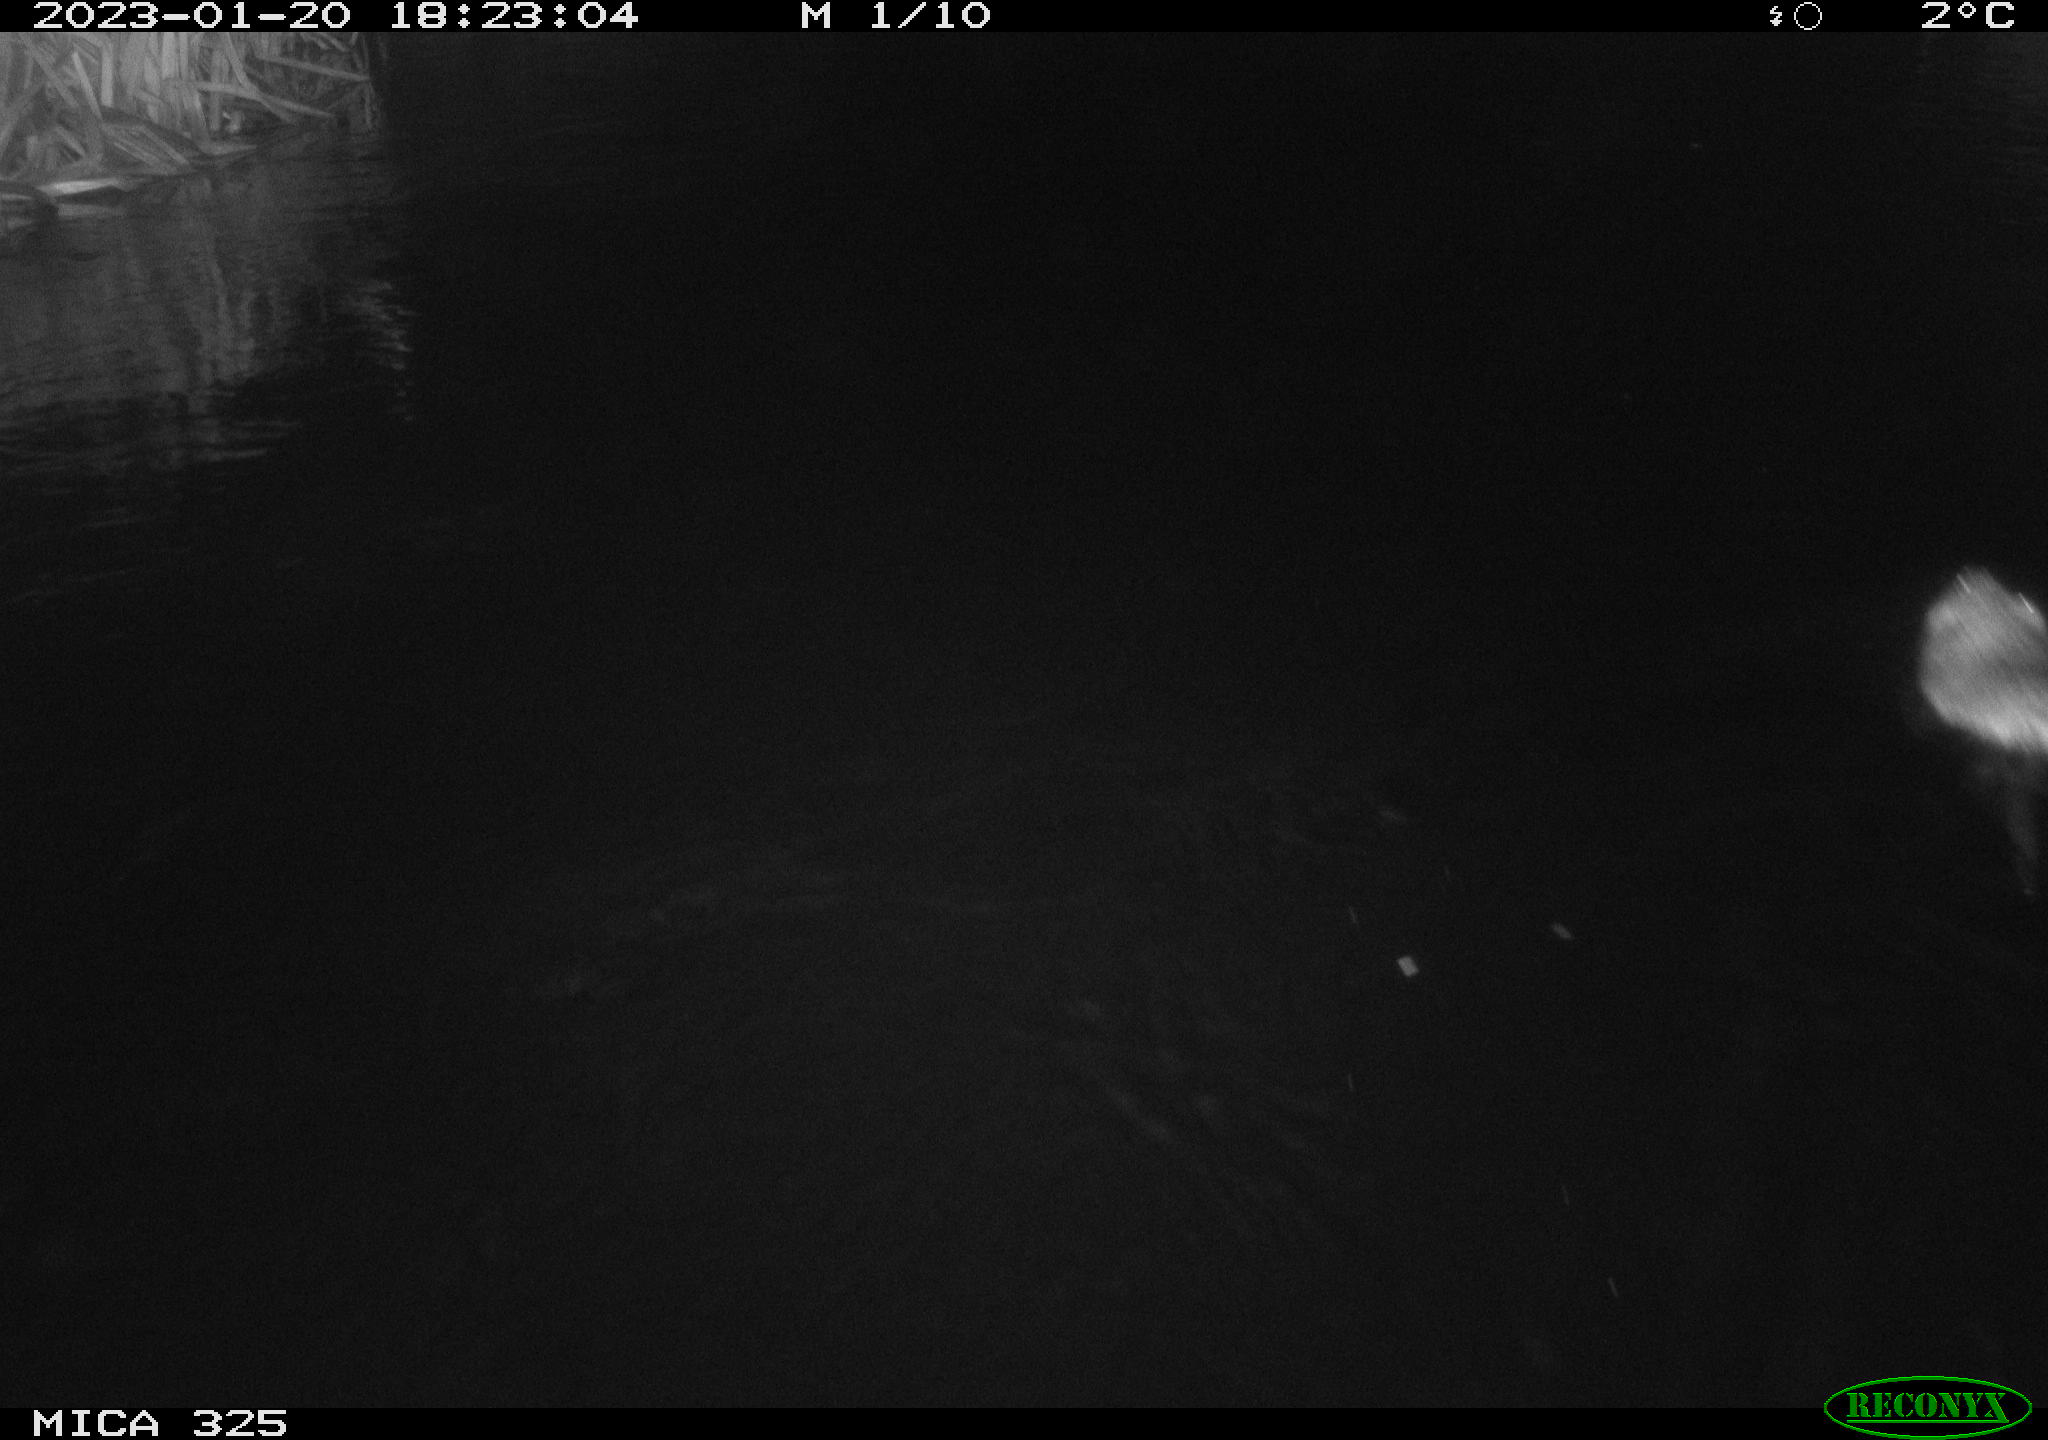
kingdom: Animalia
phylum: Chordata
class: Mammalia
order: Rodentia
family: Cricetidae
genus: Ondatra
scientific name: Ondatra zibethicus
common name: Muskrat
